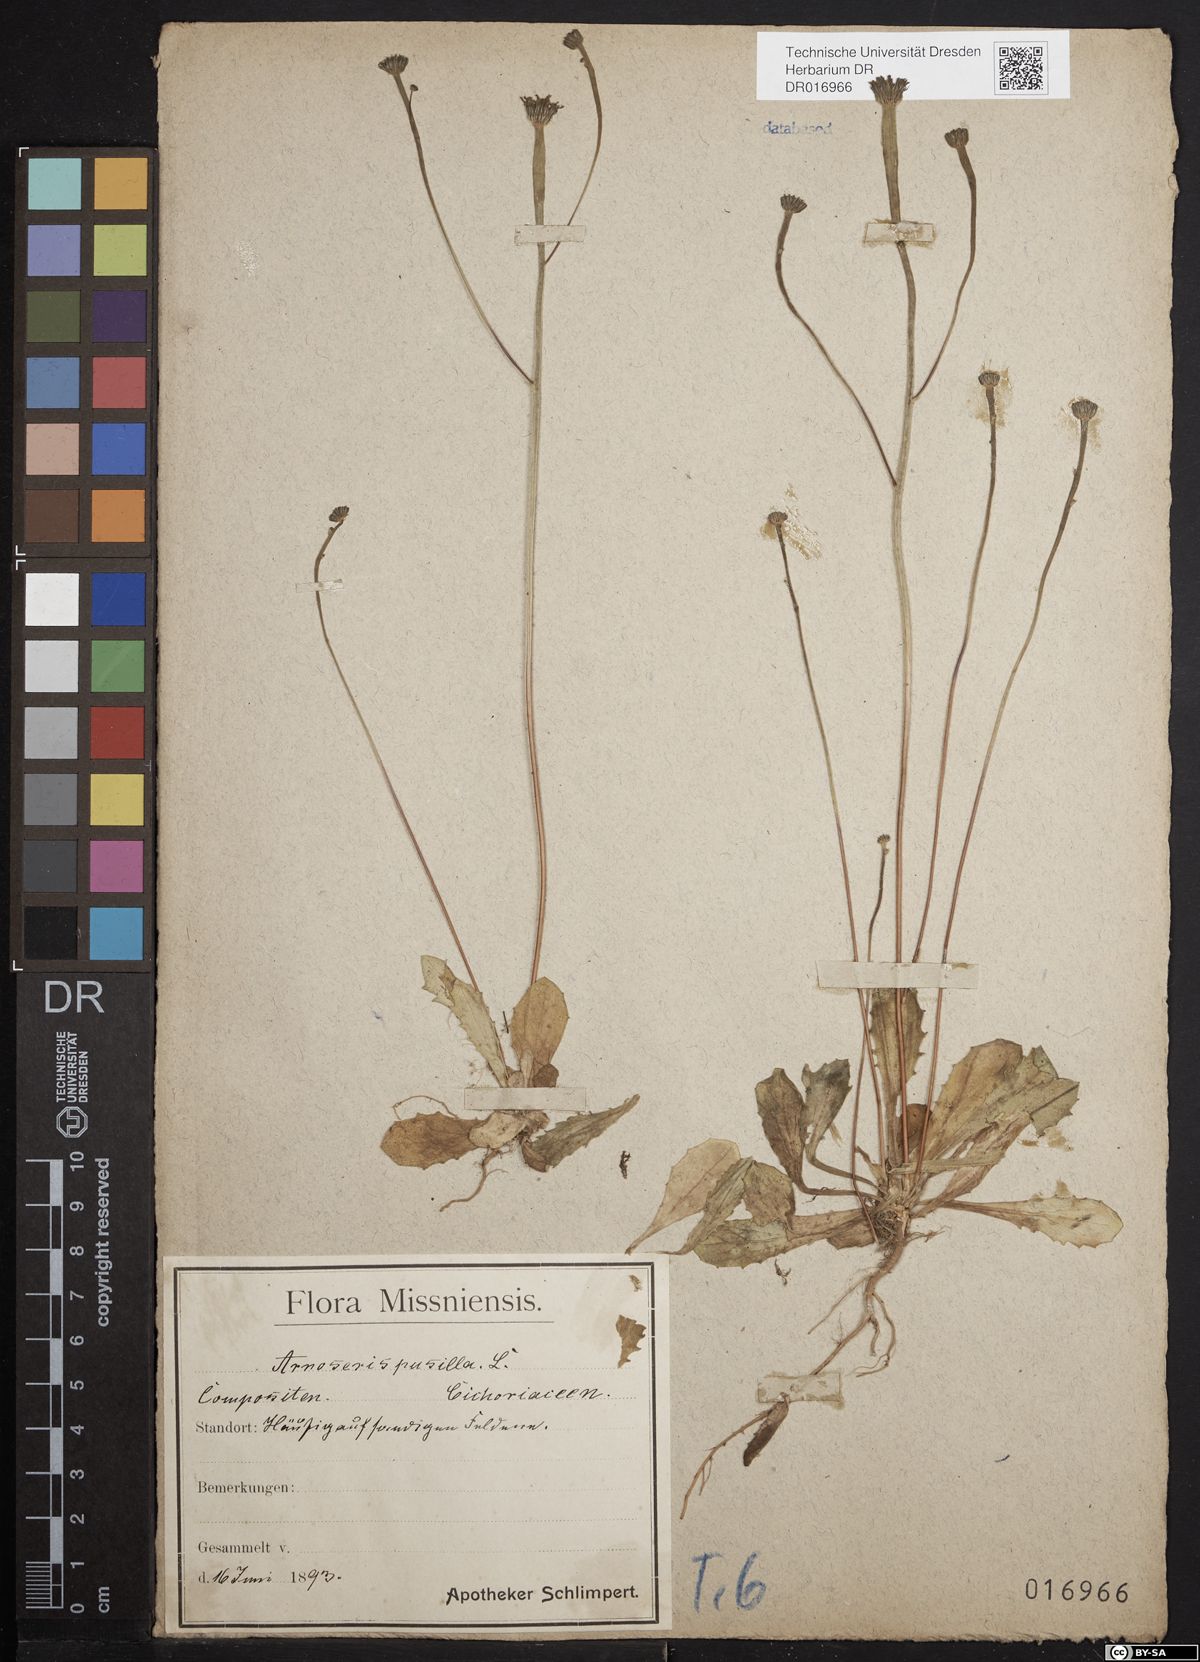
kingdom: Plantae
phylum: Tracheophyta
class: Magnoliopsida
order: Asterales
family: Asteraceae
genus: Arnoseris
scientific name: Arnoseris minima
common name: Lamb's succory
